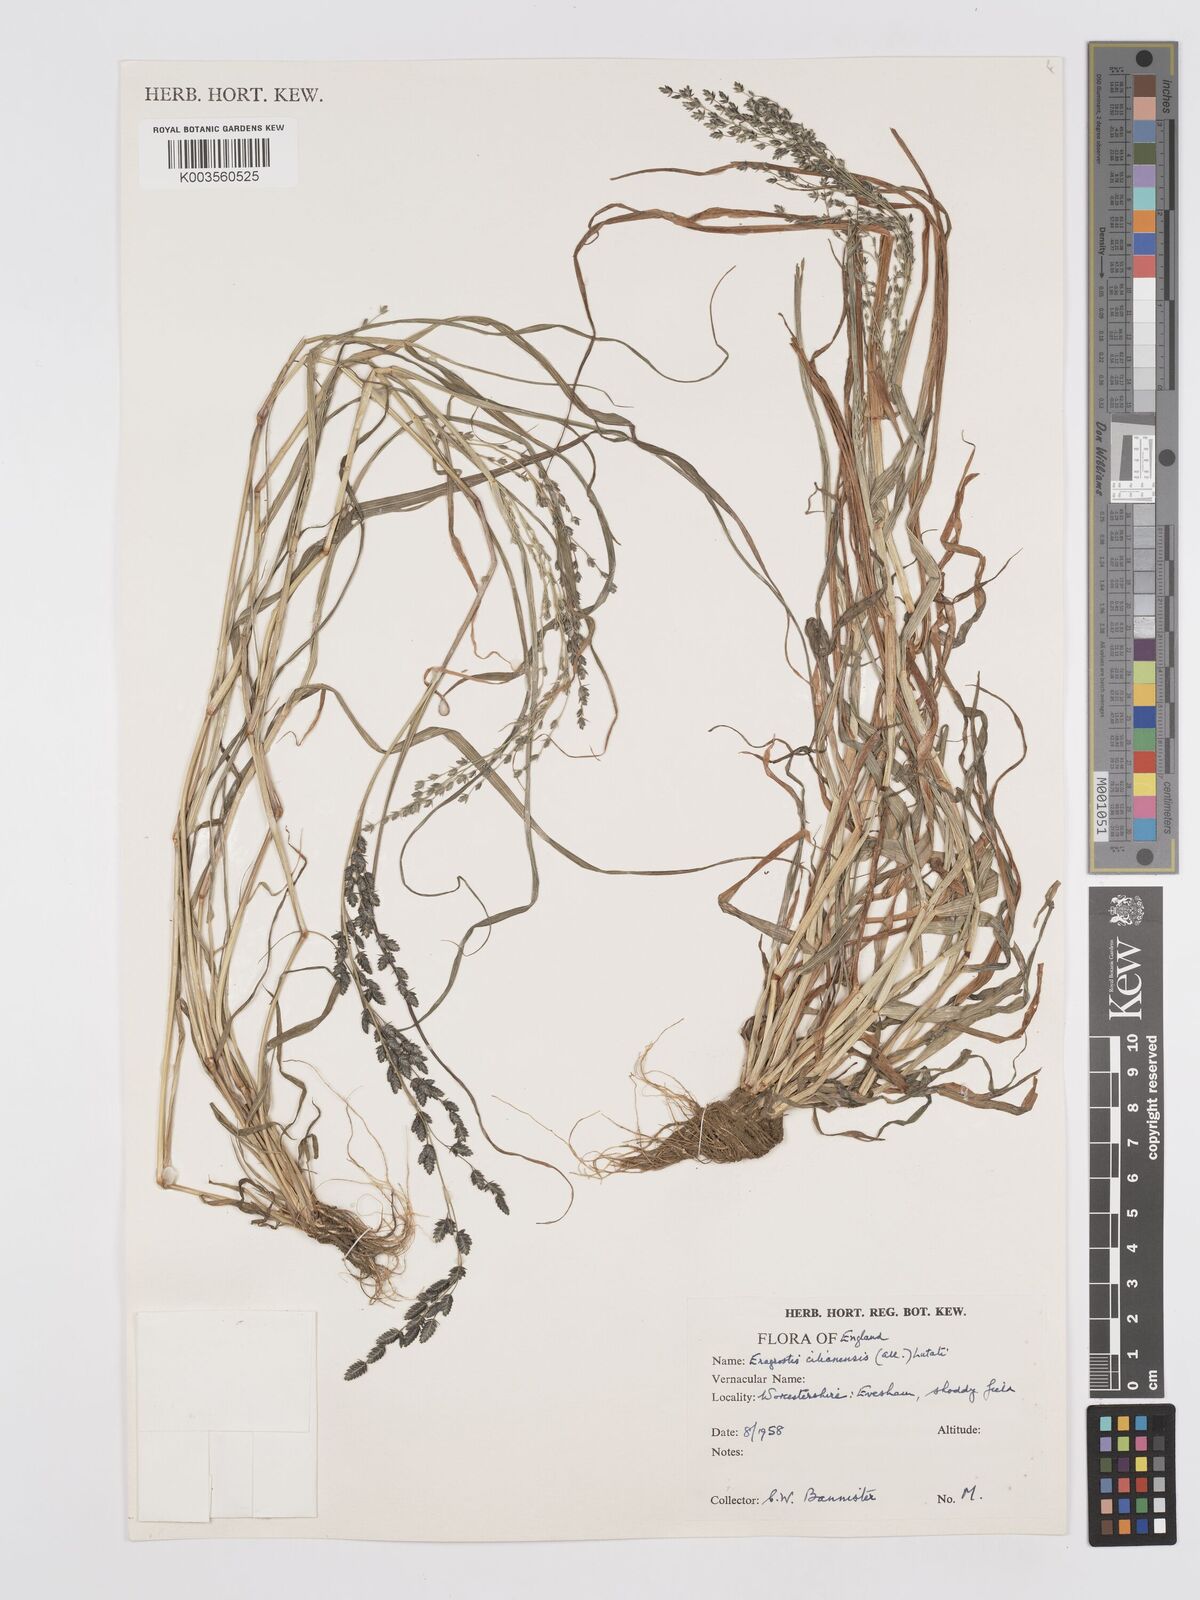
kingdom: Plantae
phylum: Tracheophyta
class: Liliopsida
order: Poales
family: Poaceae
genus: Eragrostis
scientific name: Eragrostis cilianensis
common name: Stinkgrass
